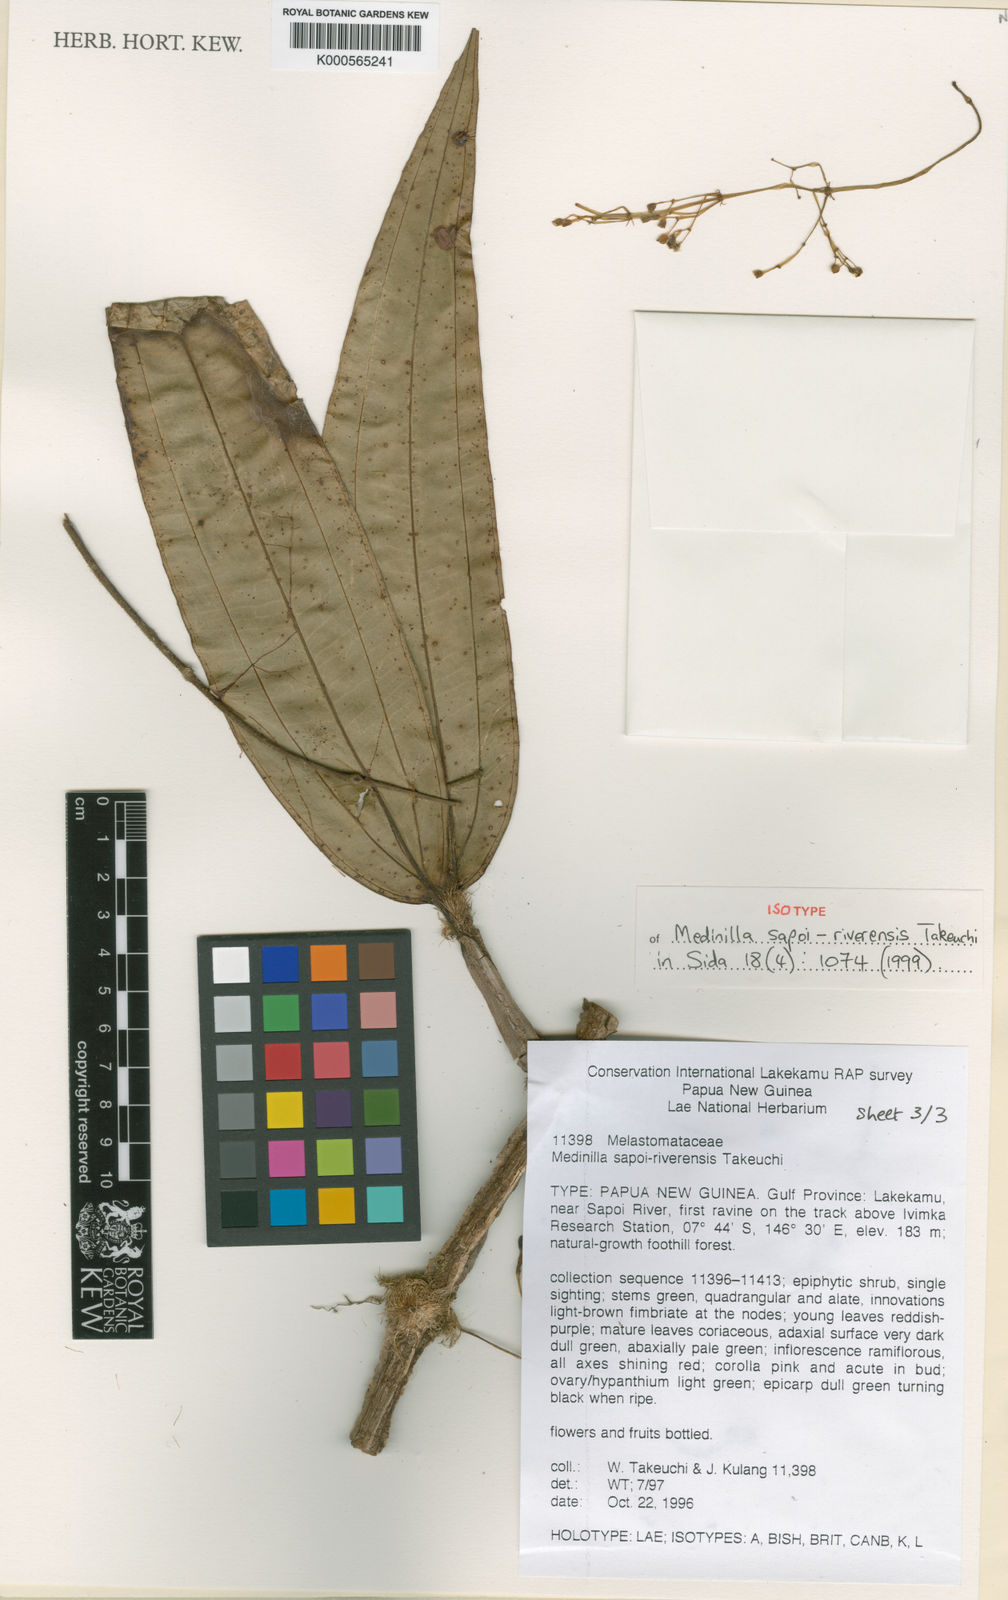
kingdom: Plantae
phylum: Tracheophyta
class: Magnoliopsida
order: Myrtales
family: Melastomataceae
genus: Medinilla
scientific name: Medinilla longifolia
